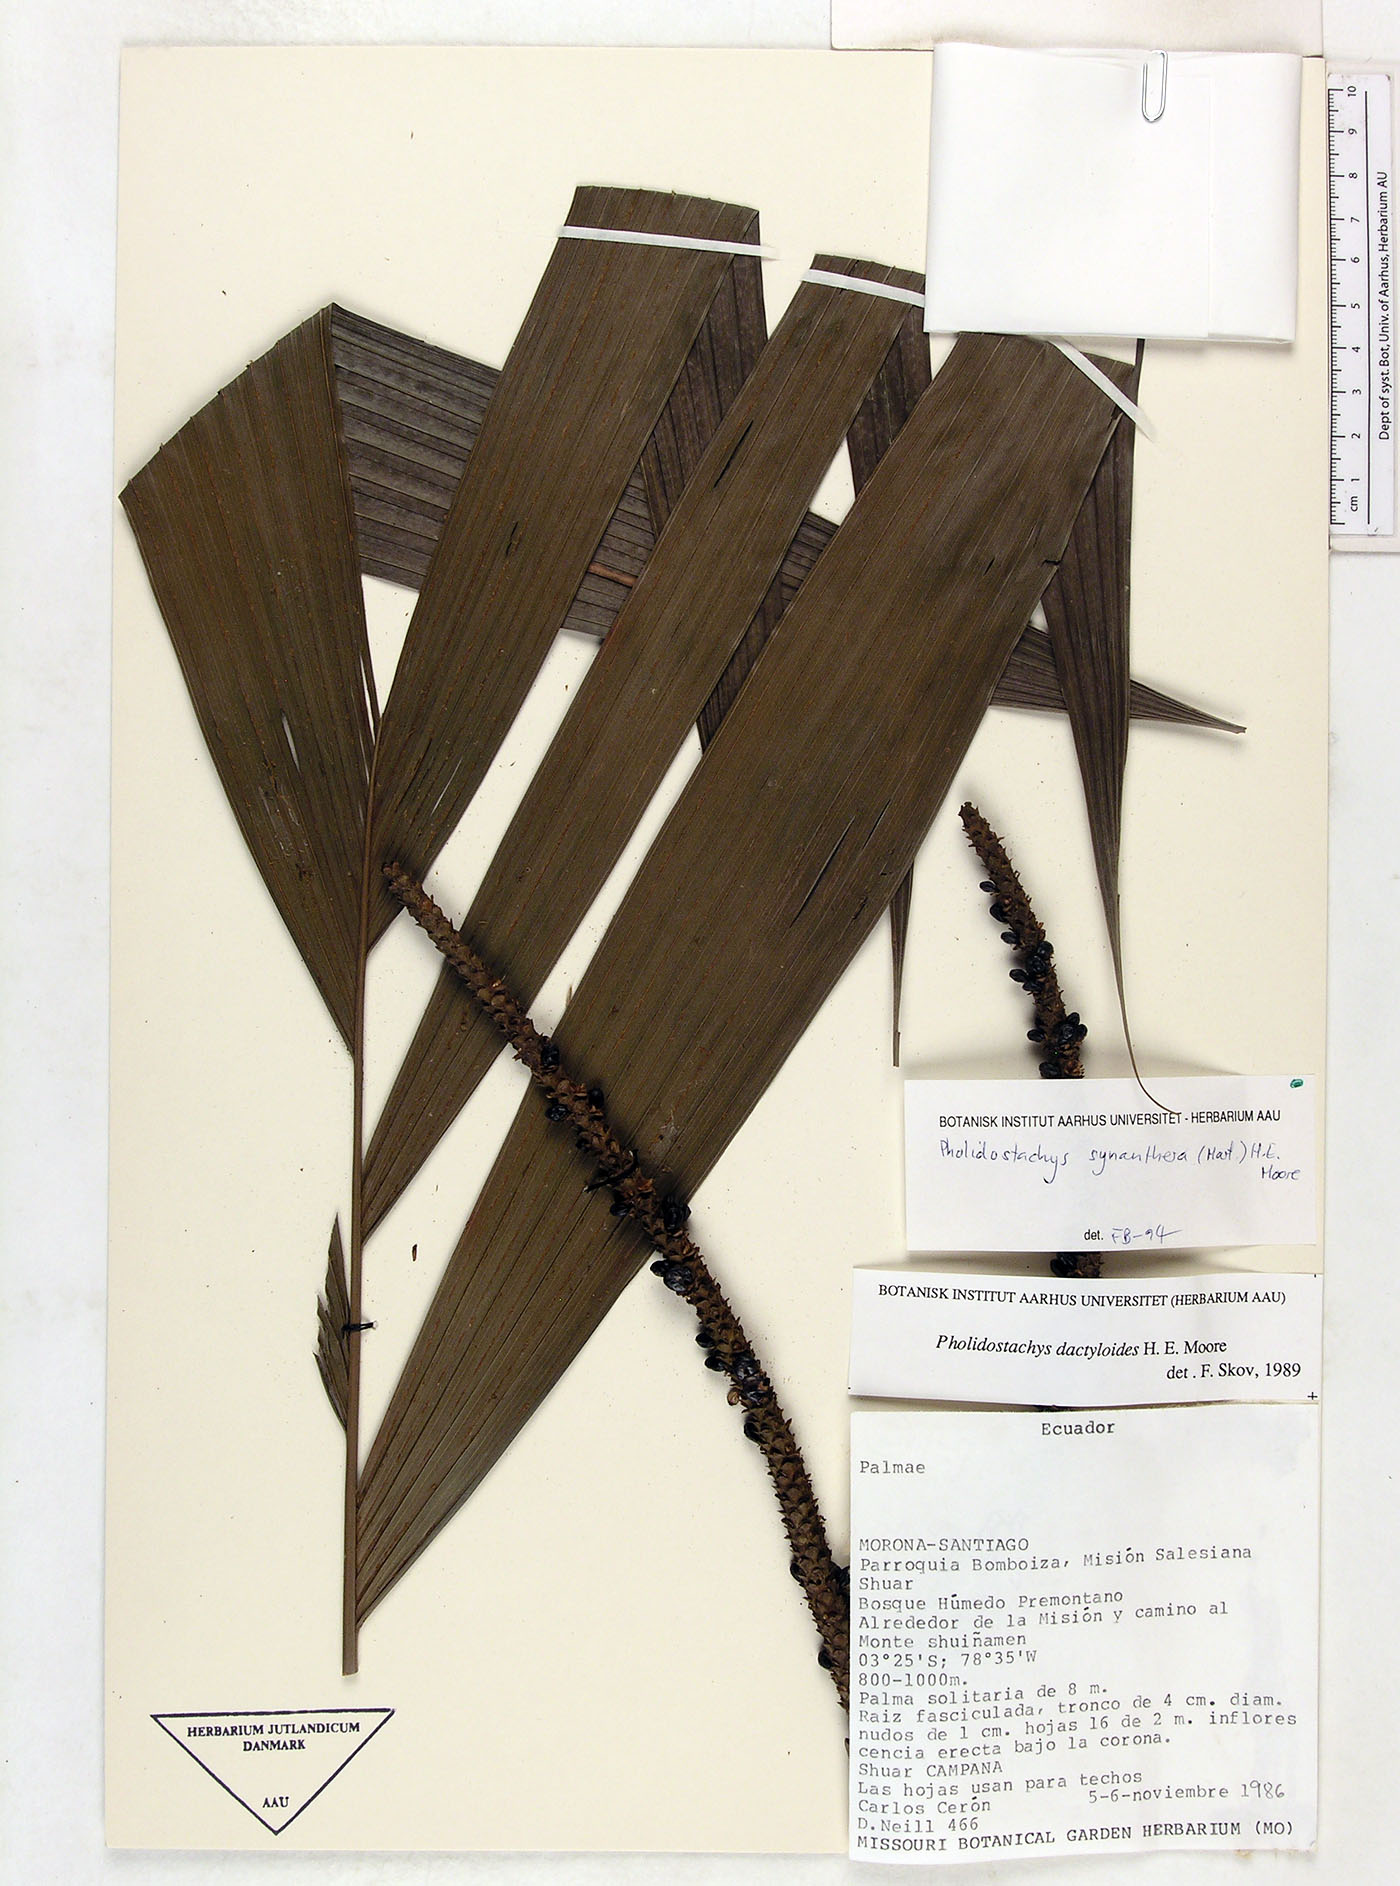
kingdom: Plantae
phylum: Tracheophyta
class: Liliopsida
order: Arecales
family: Arecaceae
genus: Pholidostachys
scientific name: Pholidostachys synanthera
